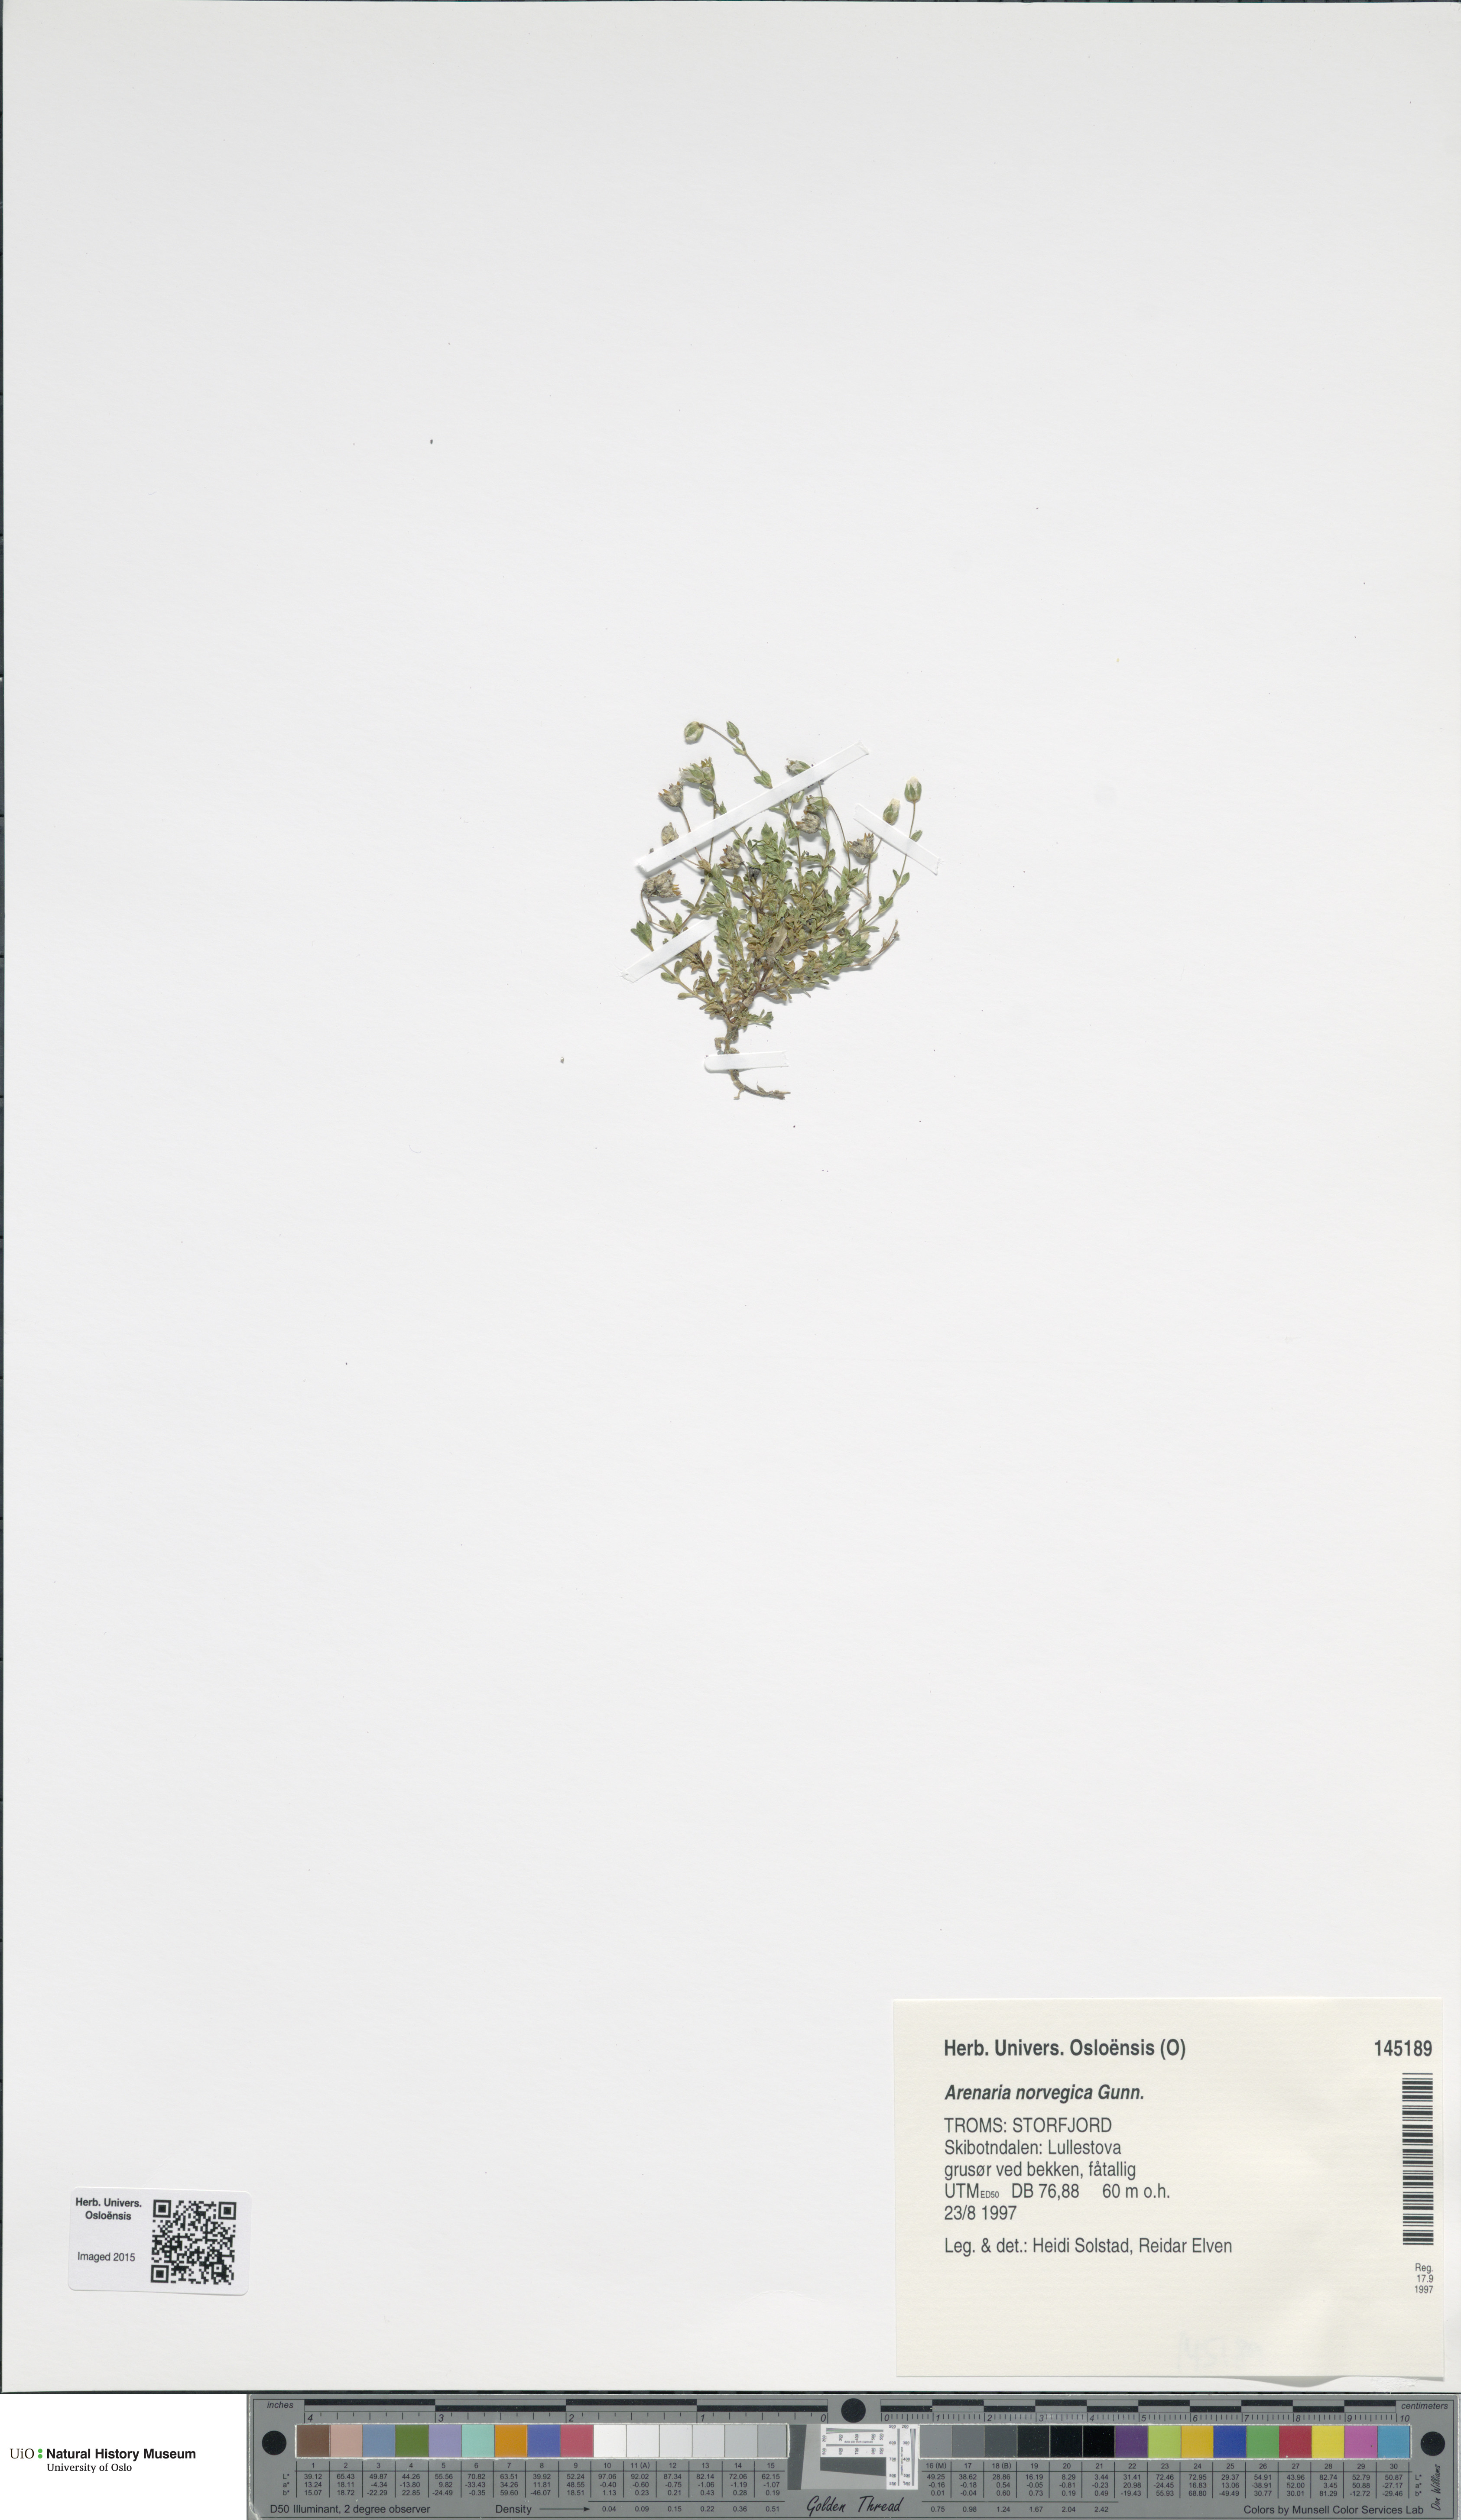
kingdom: Plantae
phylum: Tracheophyta
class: Magnoliopsida
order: Caryophyllales
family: Caryophyllaceae
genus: Arenaria
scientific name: Arenaria norvegica
